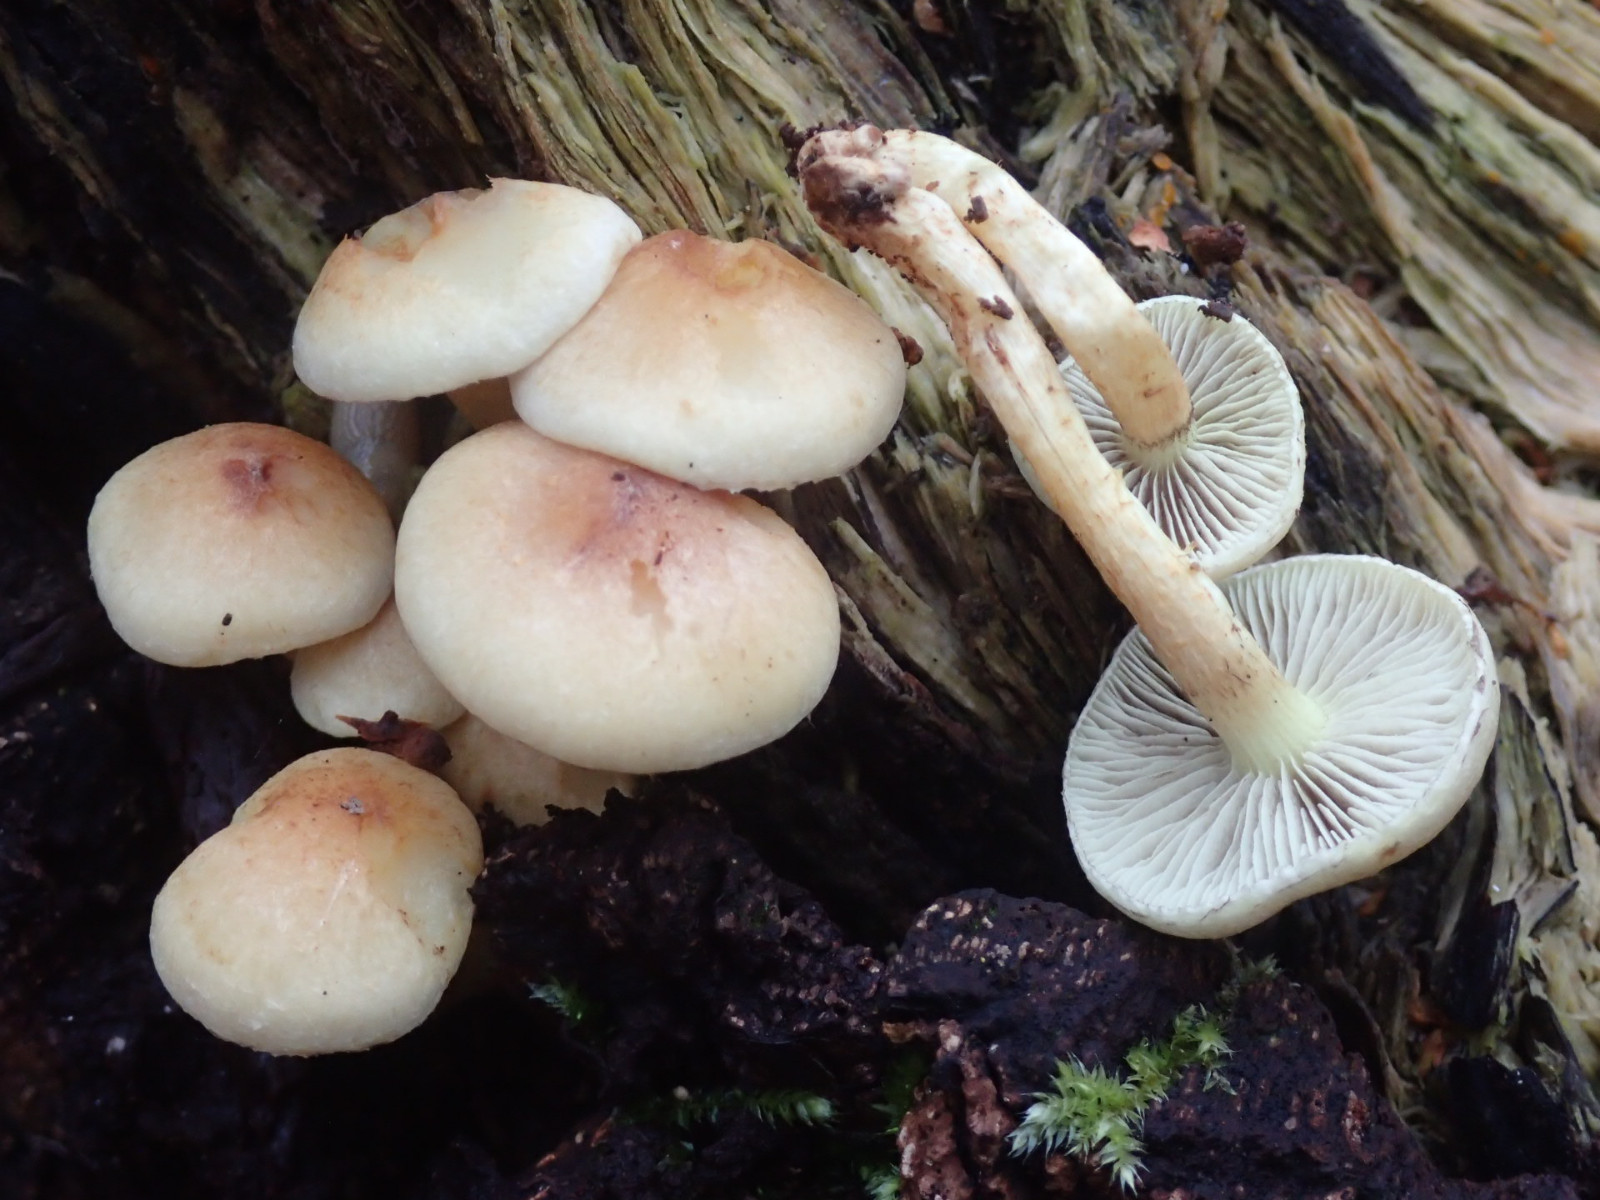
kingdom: Fungi
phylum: Basidiomycota
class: Agaricomycetes
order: Agaricales
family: Strophariaceae
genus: Hypholoma
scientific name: Hypholoma lateritium
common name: teglrød svovlhat
